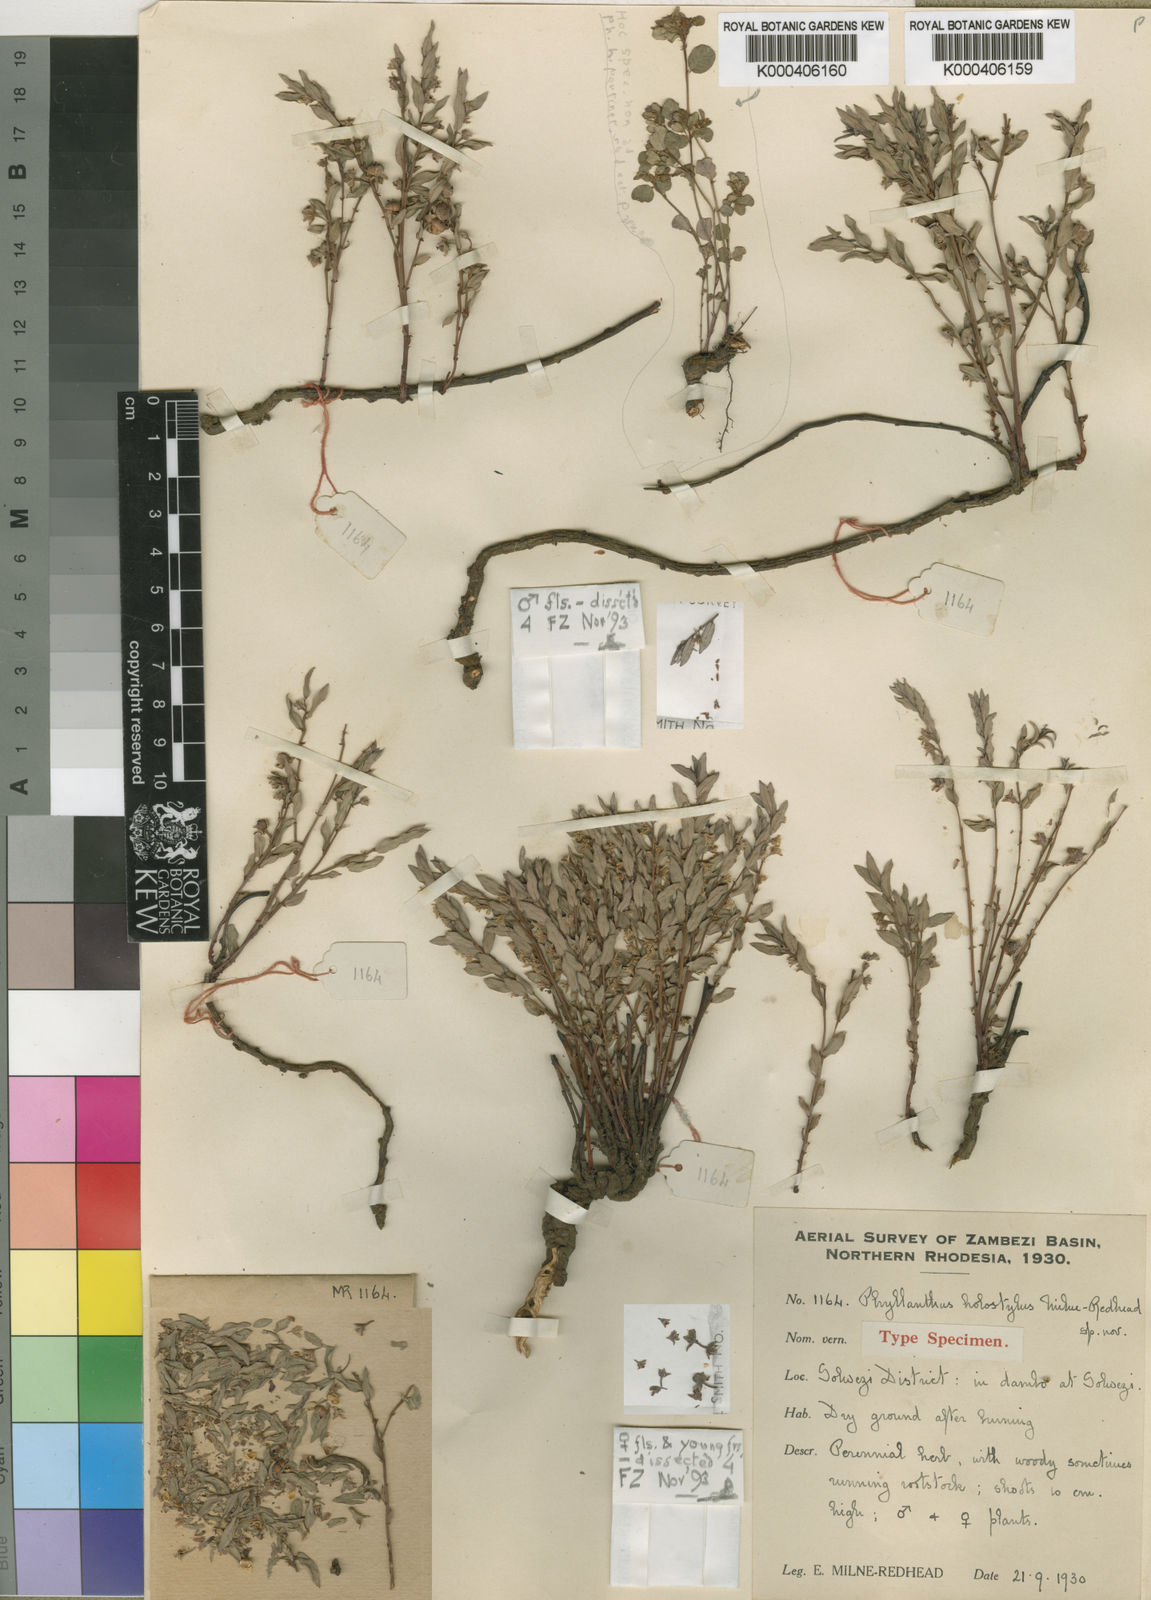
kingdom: Plantae
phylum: Tracheophyta
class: Magnoliopsida
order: Malpighiales
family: Phyllanthaceae
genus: Phyllanthus
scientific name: Phyllanthus holostylus
